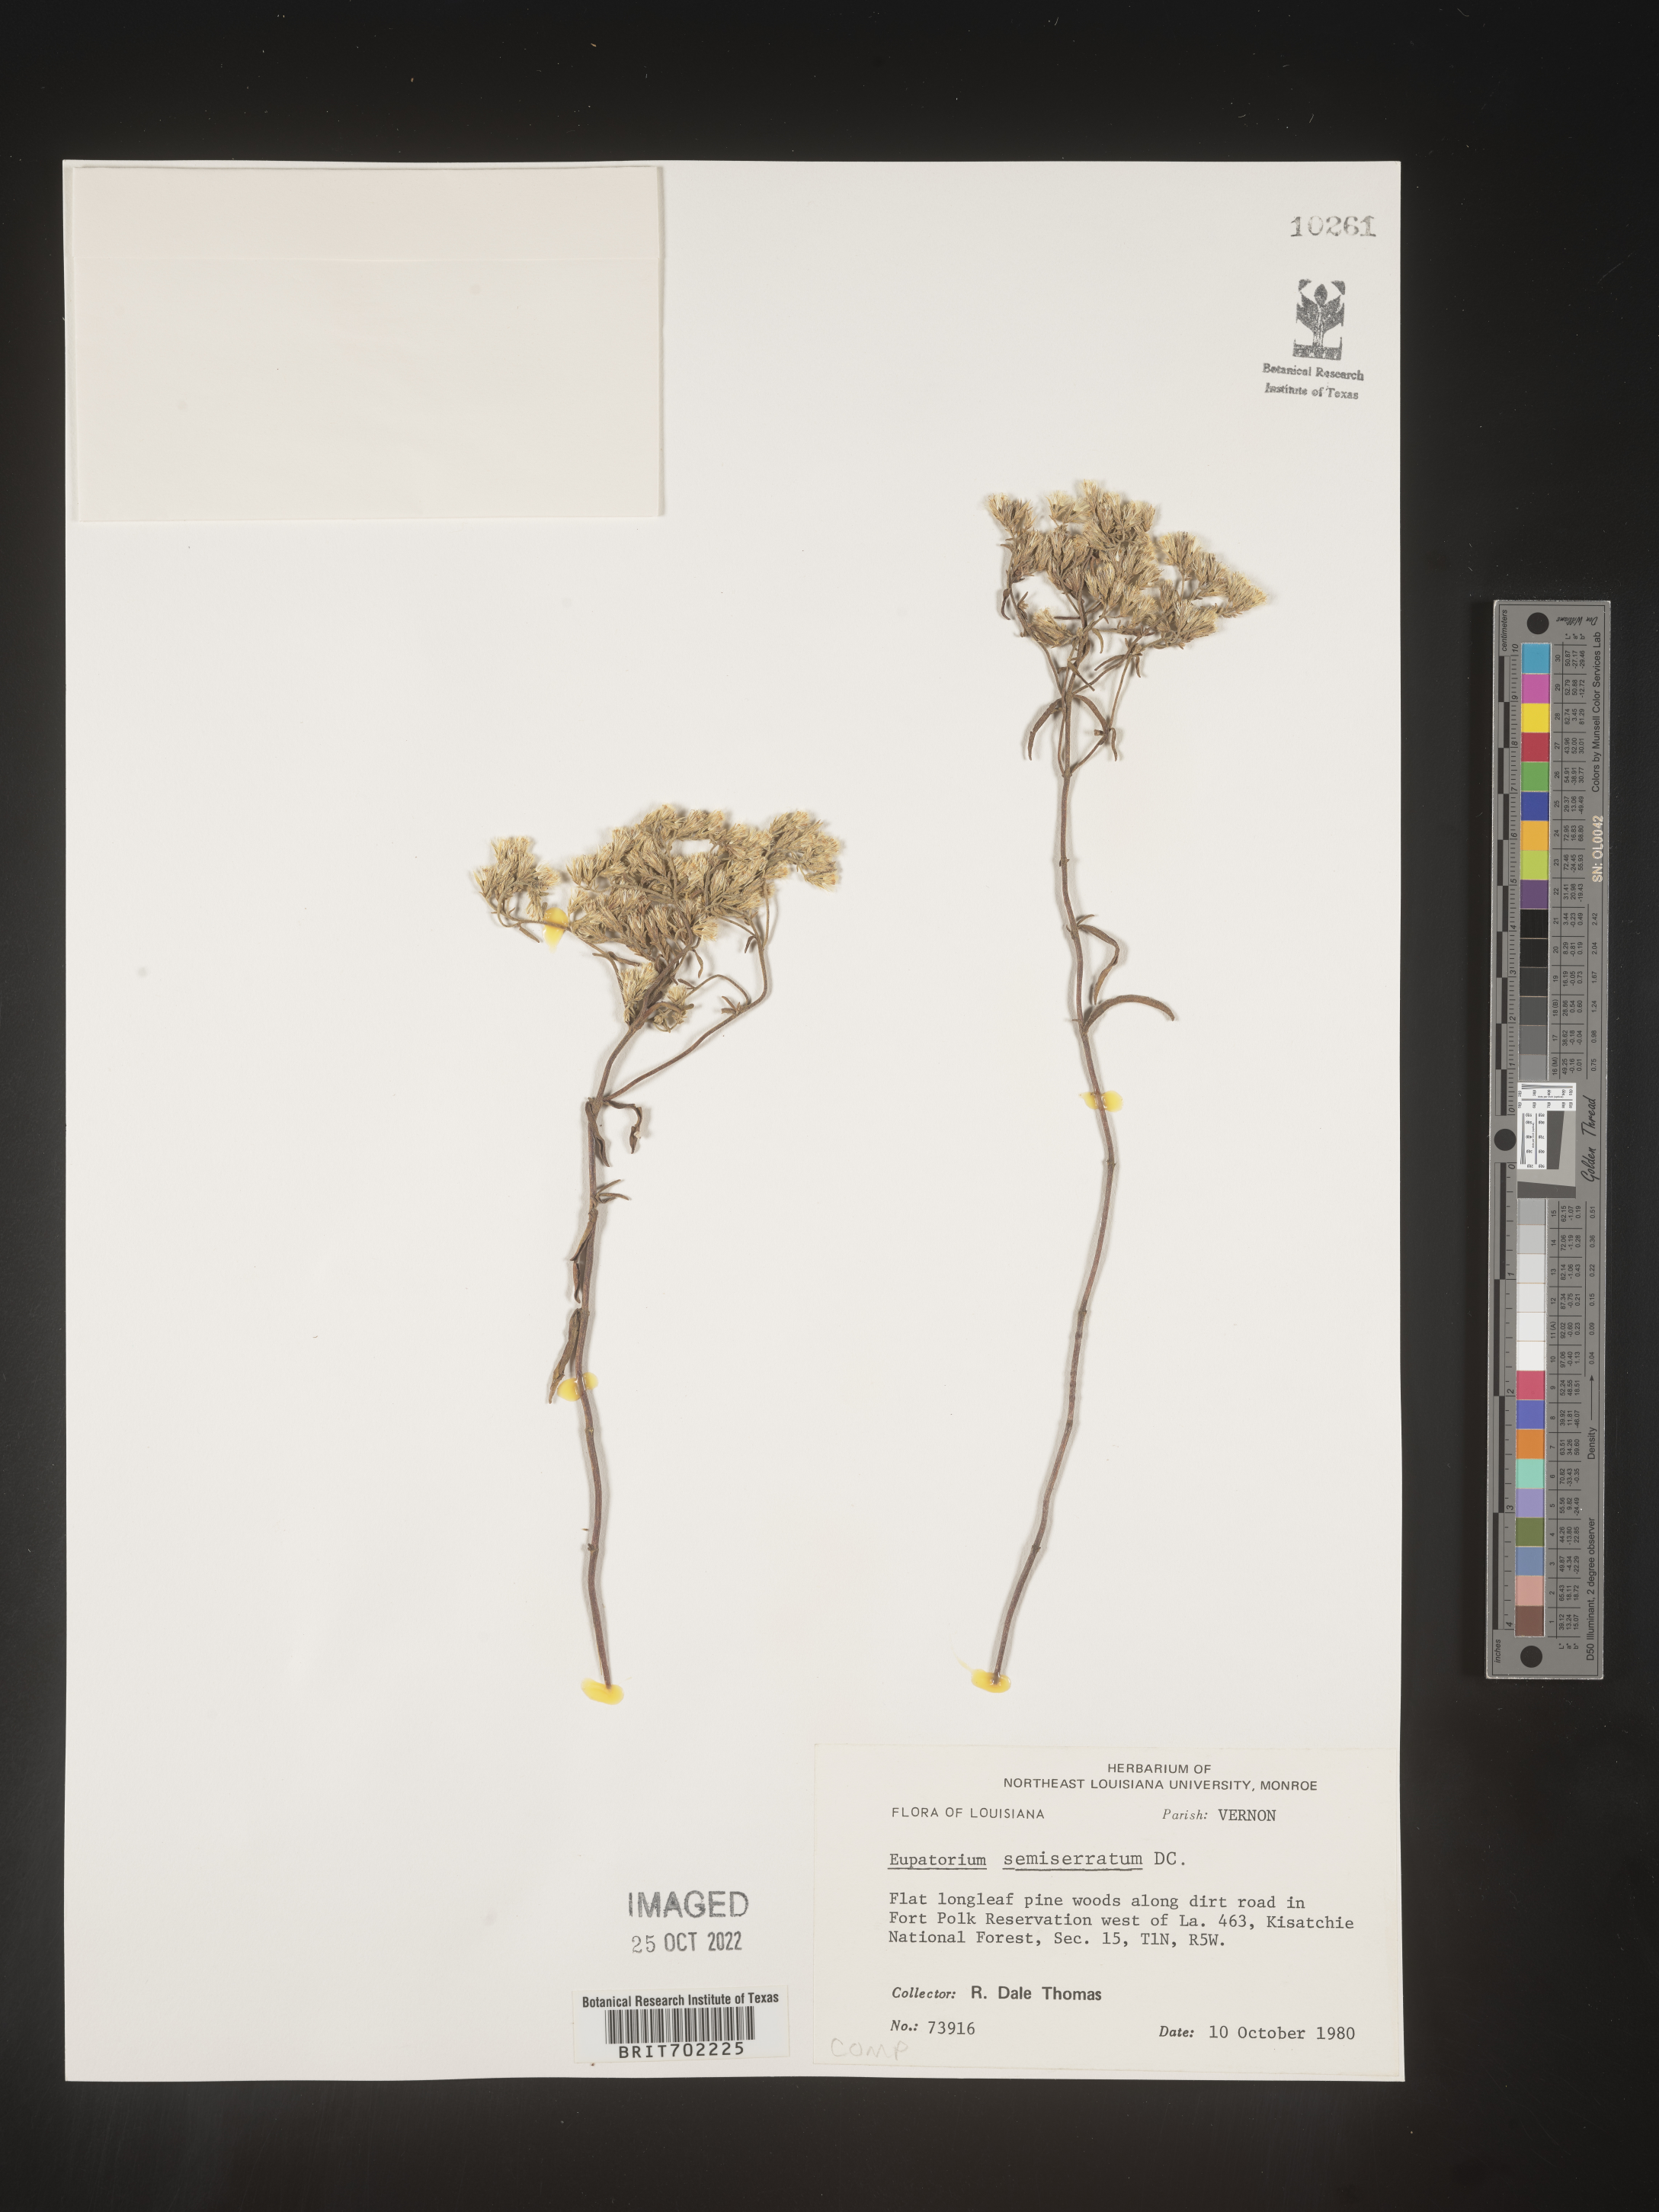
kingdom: Plantae
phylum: Tracheophyta
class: Magnoliopsida
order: Asterales
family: Asteraceae
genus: Eupatorium
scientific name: Eupatorium semiserratum
